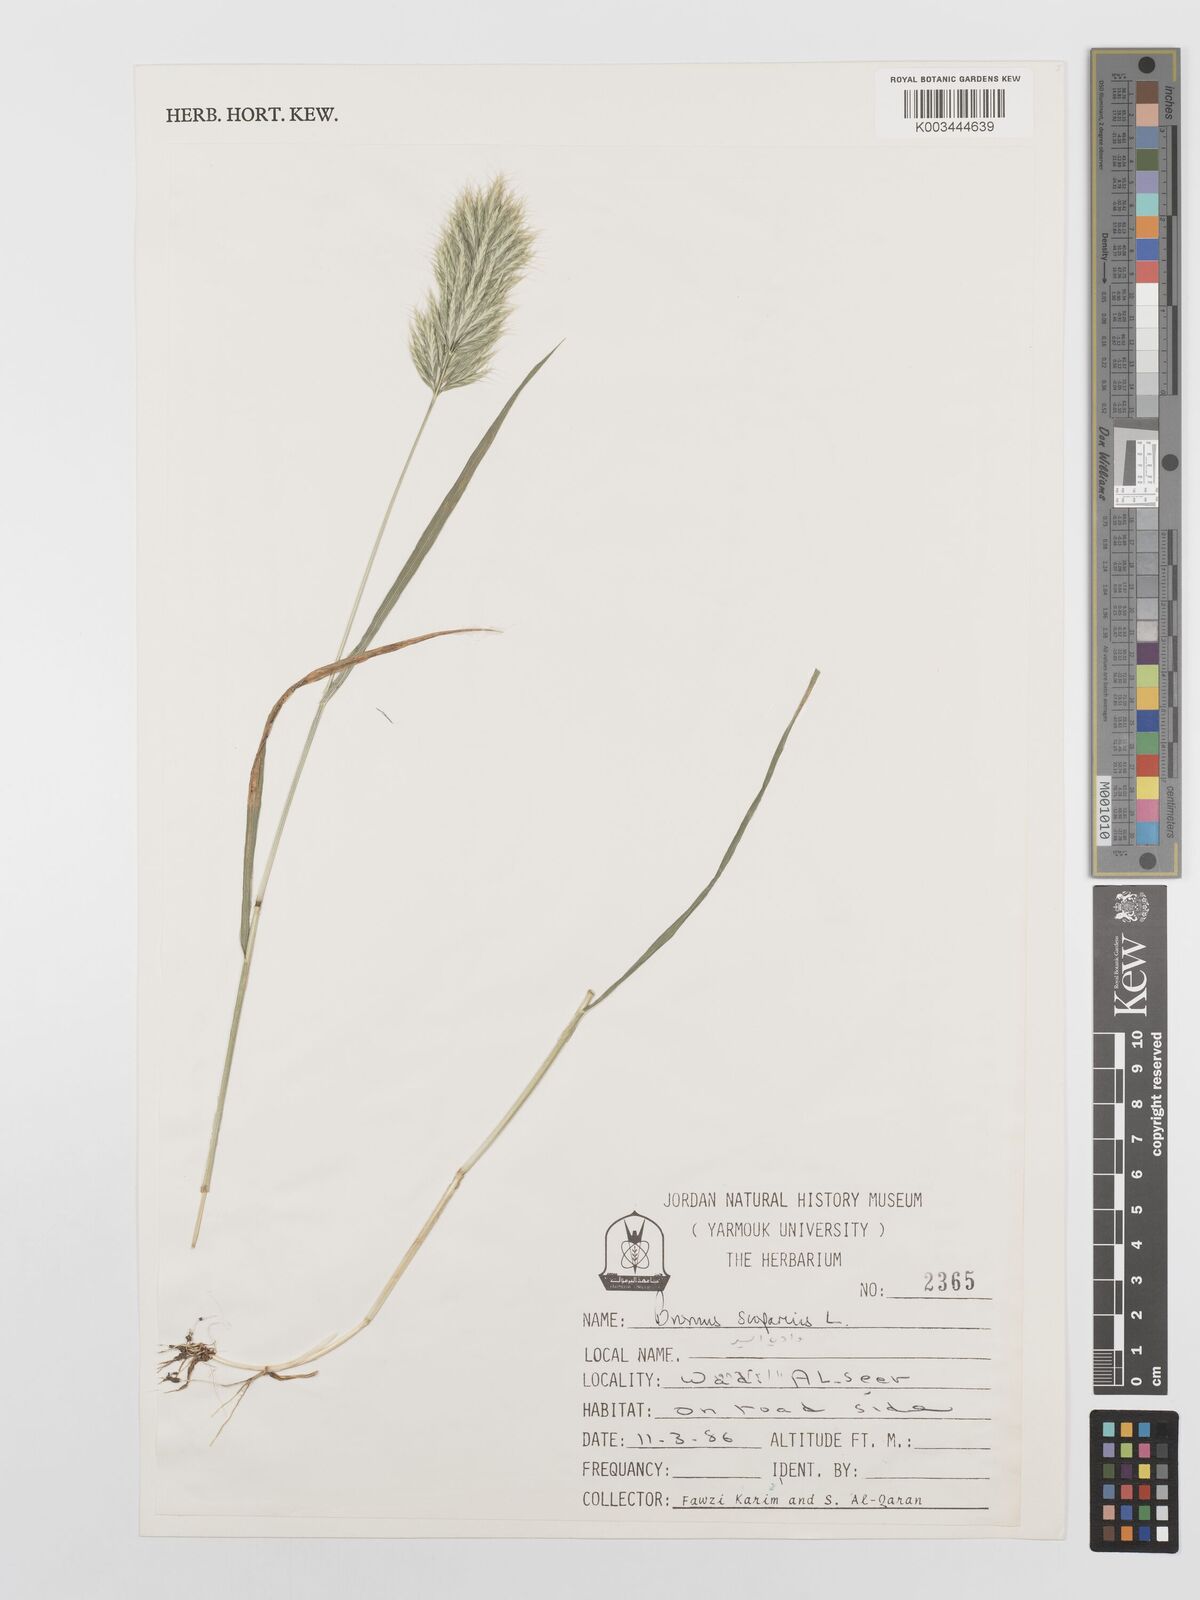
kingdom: Plantae
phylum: Tracheophyta
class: Liliopsida
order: Poales
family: Poaceae
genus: Bromus
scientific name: Bromus scoparius
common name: Broom brome
